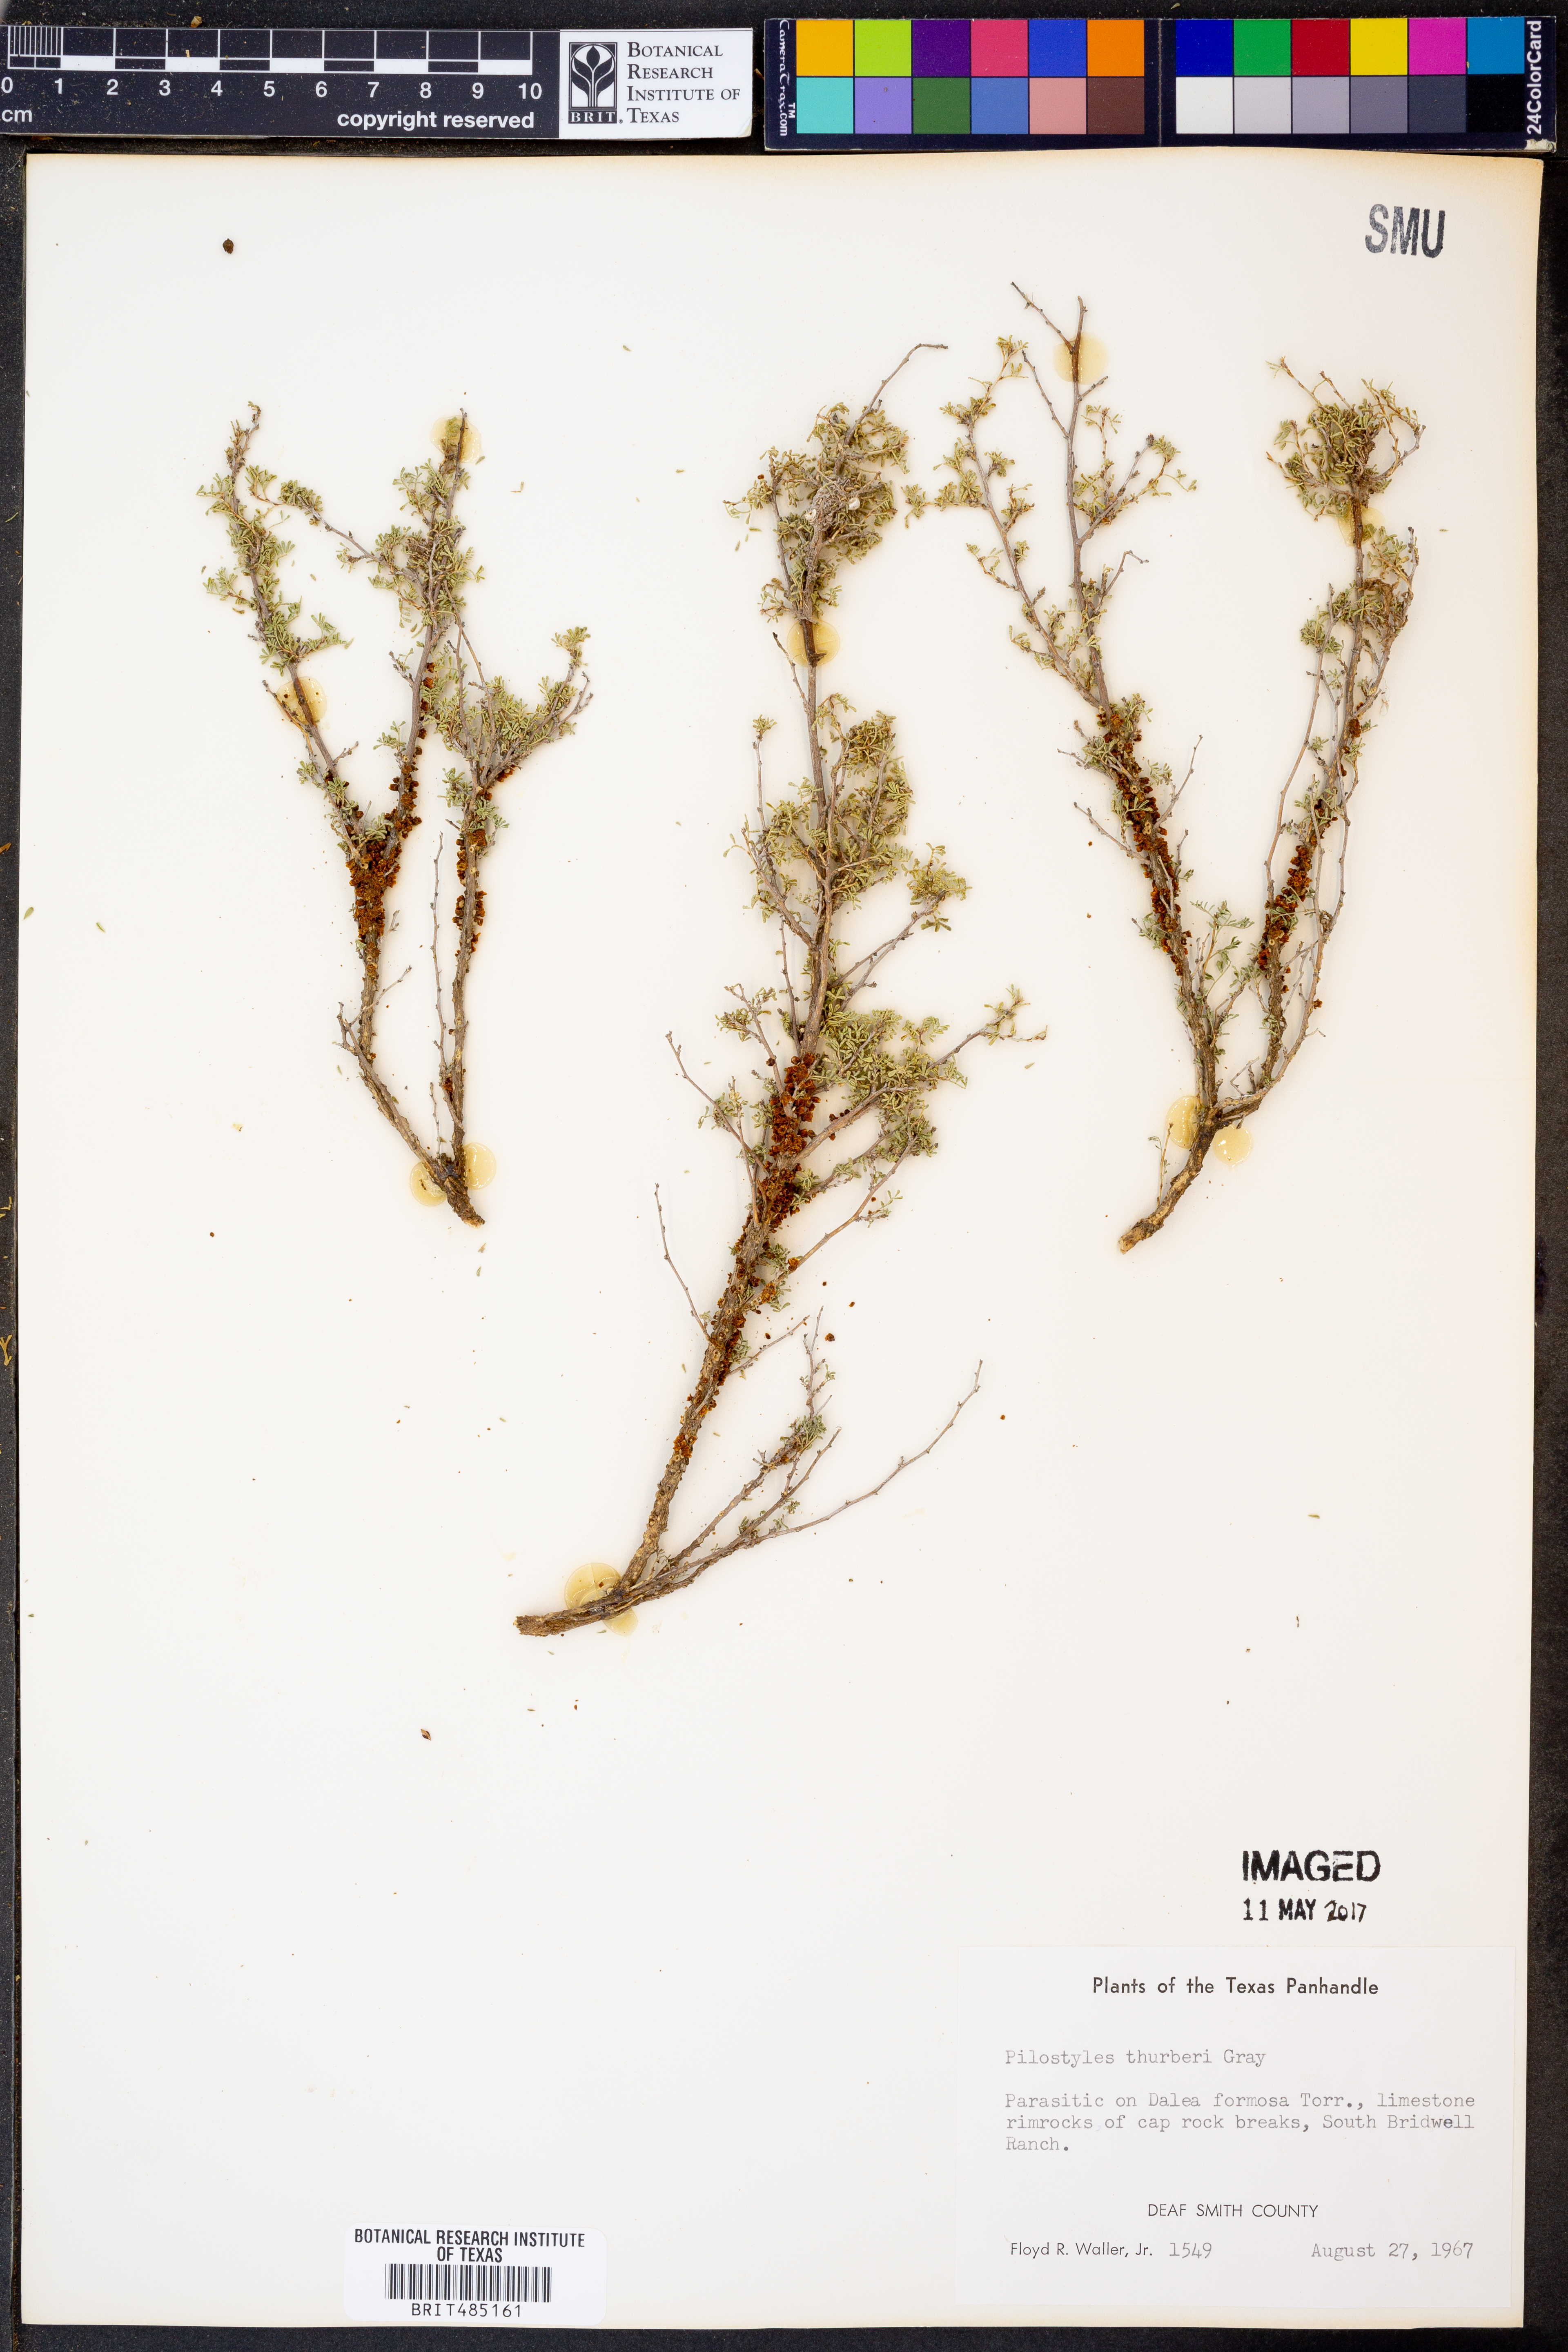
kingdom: Plantae
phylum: Tracheophyta
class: Magnoliopsida
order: Cucurbitales
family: Apodanthaceae
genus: Pilostyles
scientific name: Pilostyles thurberi
